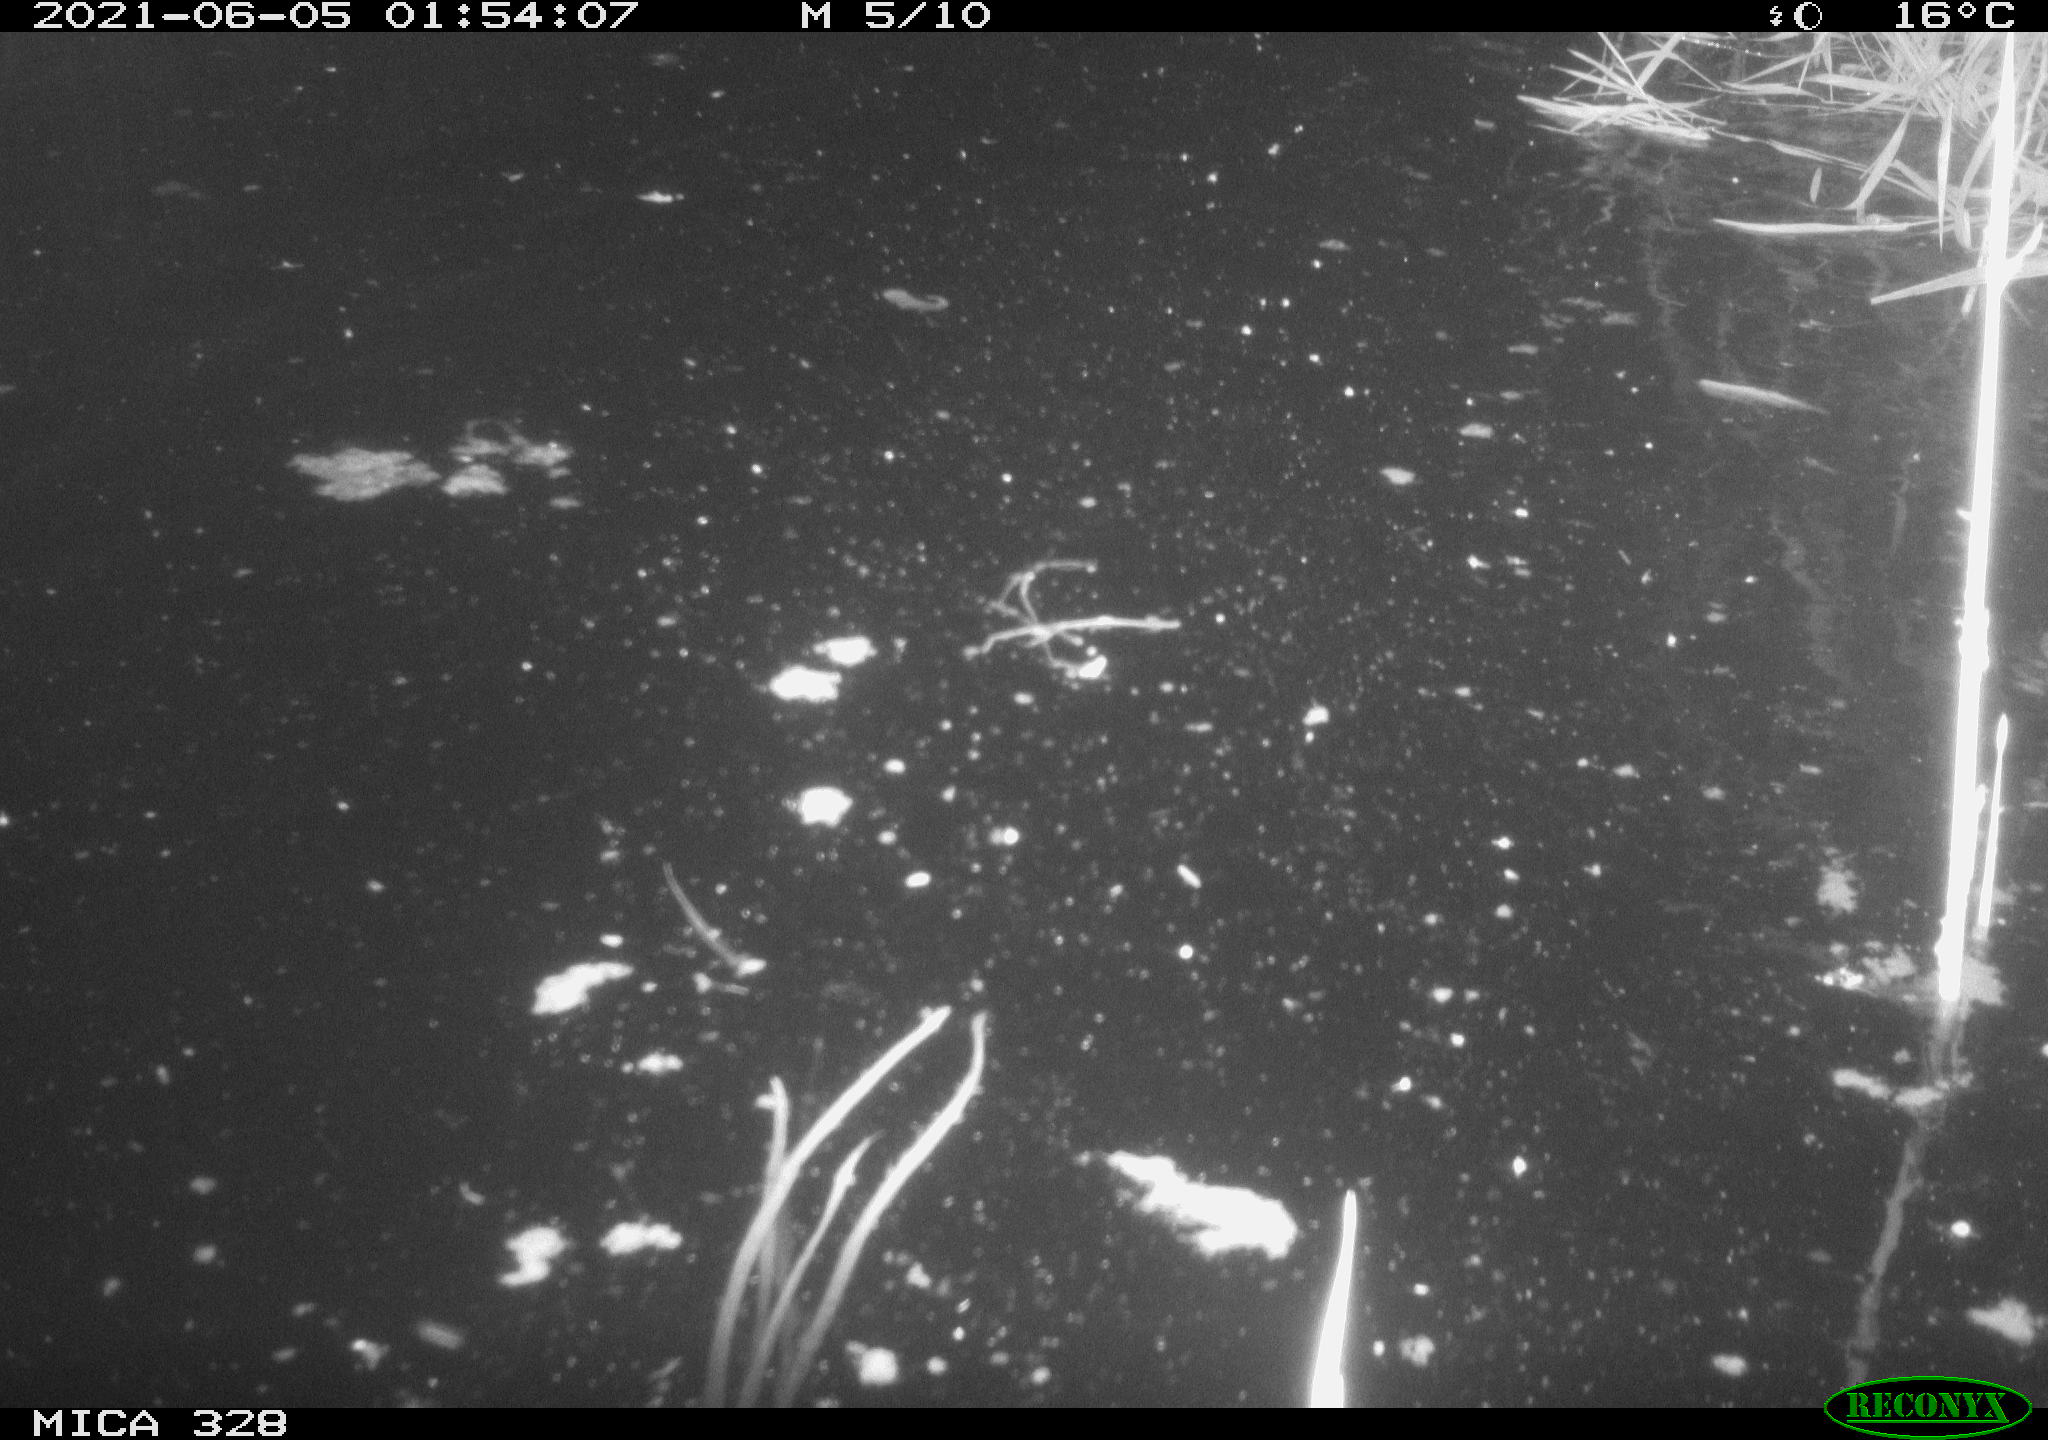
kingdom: Animalia
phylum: Chordata
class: Mammalia
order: Rodentia
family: Cricetidae
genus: Ondatra
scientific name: Ondatra zibethicus
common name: Muskrat
